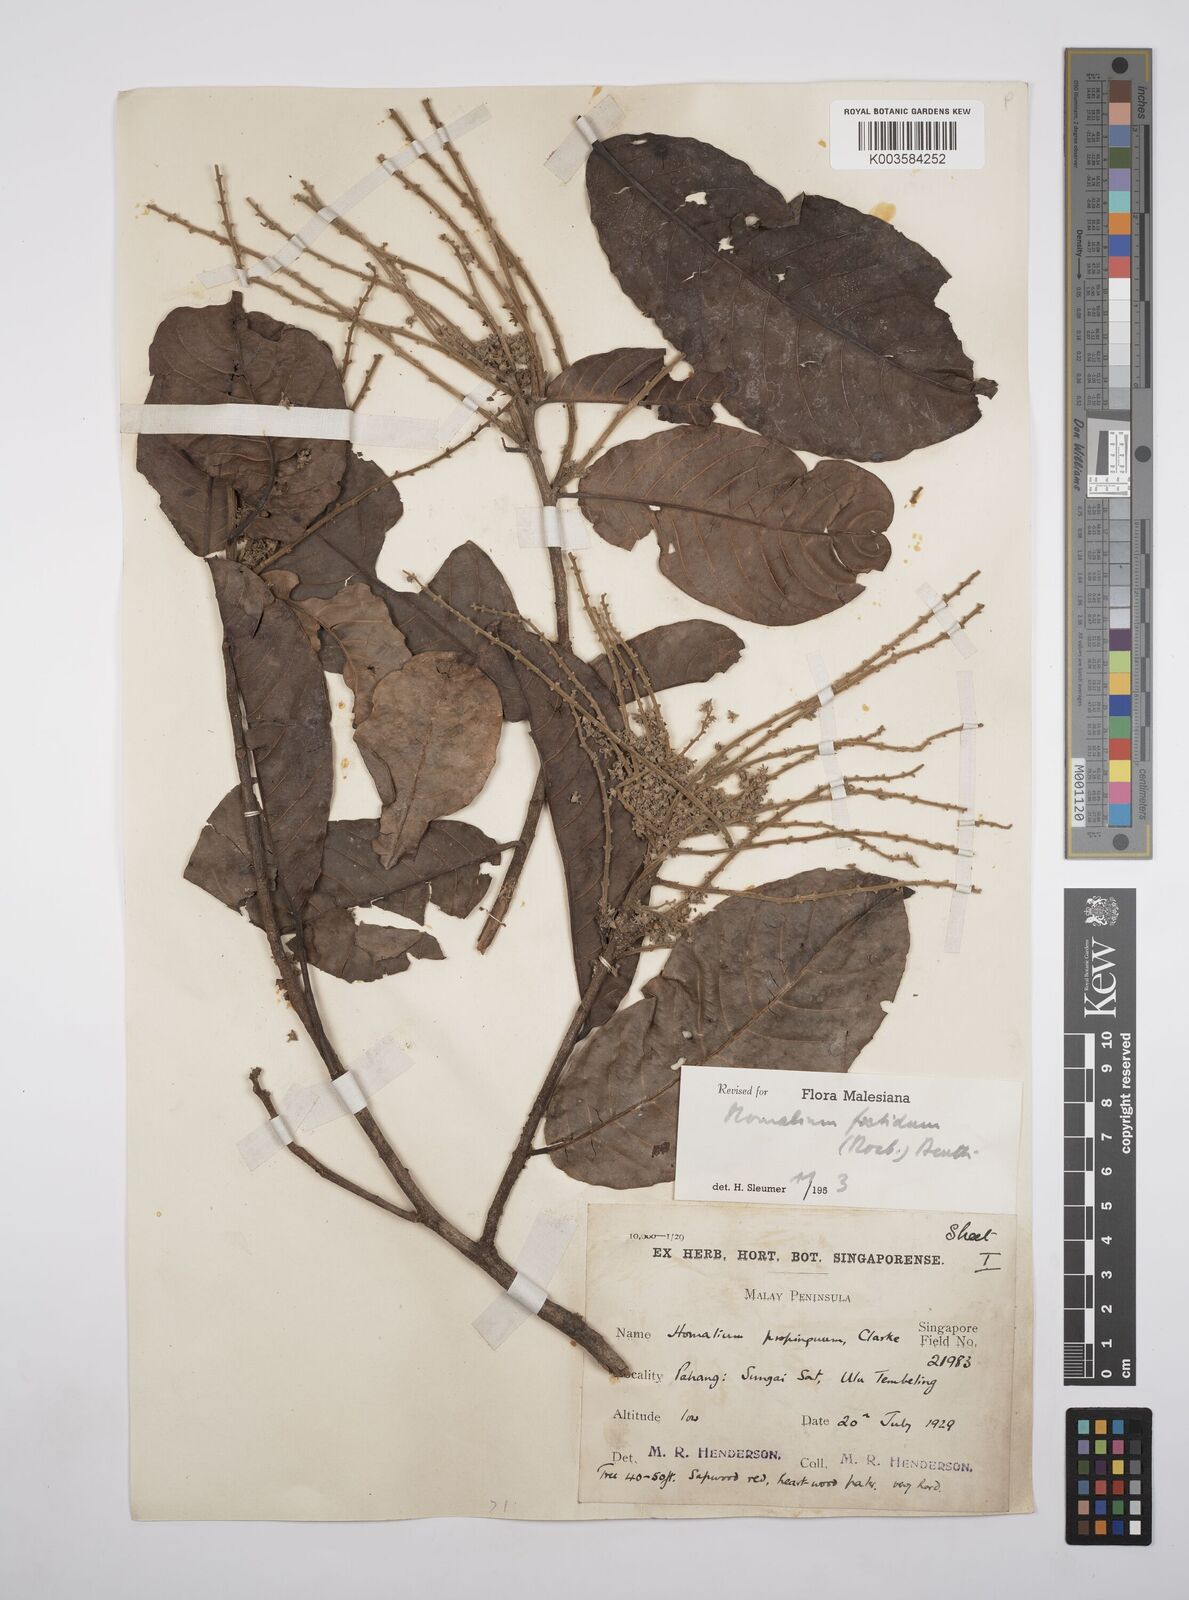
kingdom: Plantae
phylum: Tracheophyta
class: Magnoliopsida
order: Malpighiales
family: Salicaceae
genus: Homalium
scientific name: Homalium foetidum
